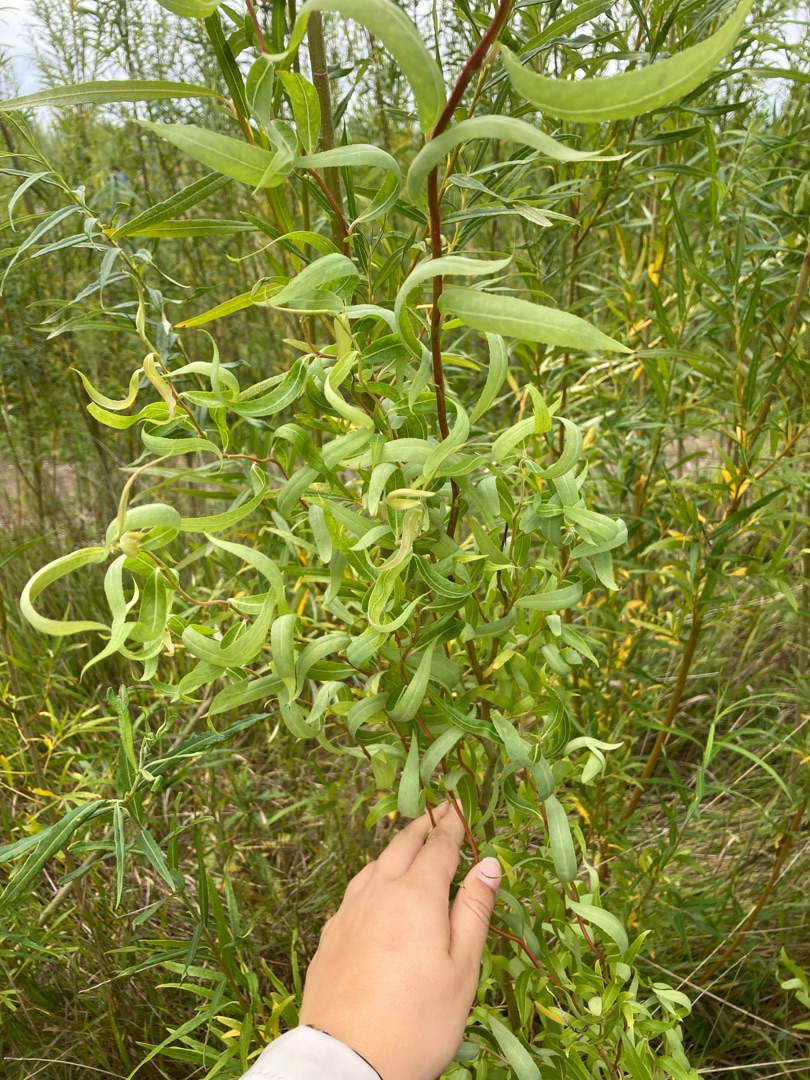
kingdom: Plantae
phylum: Tracheophyta
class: Magnoliopsida
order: Malpighiales
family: Salicaceae
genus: Salix
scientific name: Salix babylonica
